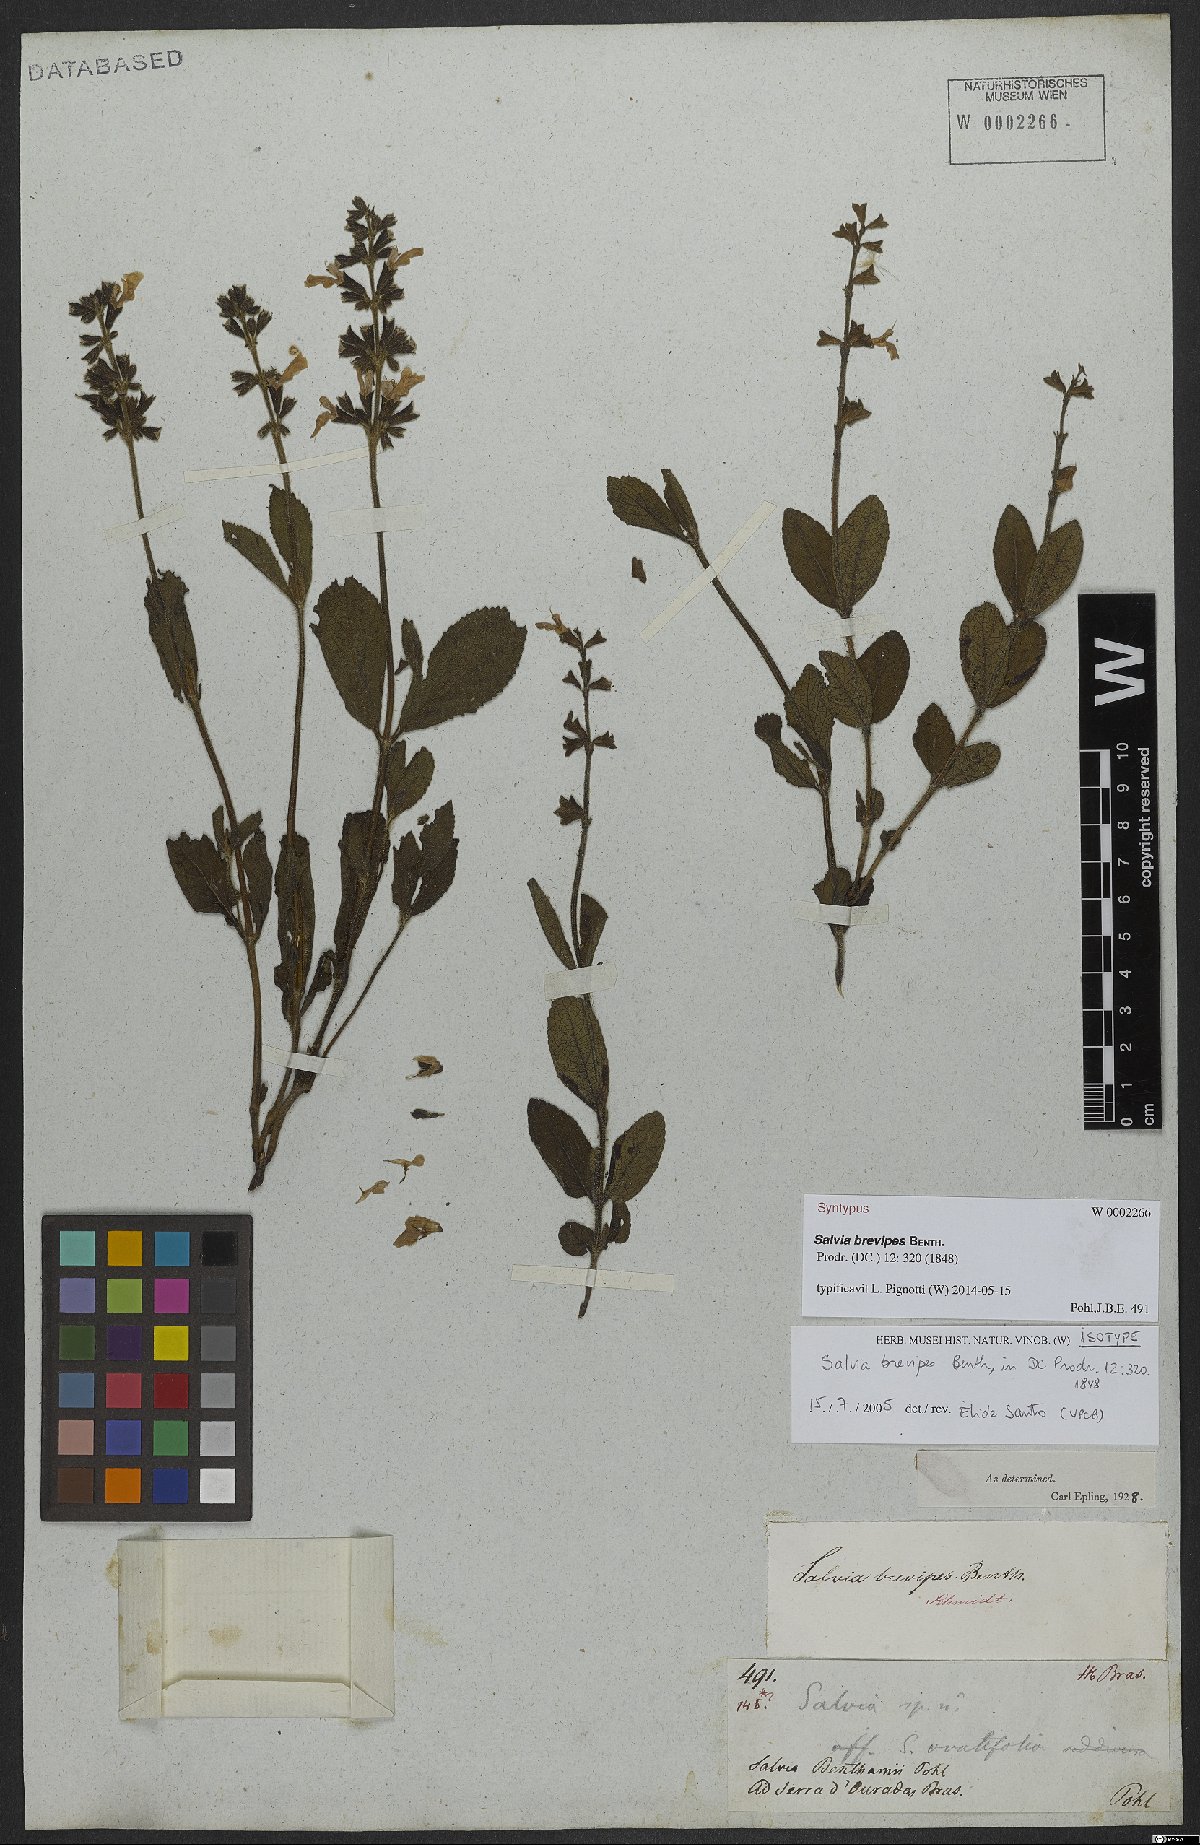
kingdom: Plantae
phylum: Tracheophyta
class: Magnoliopsida
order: Lamiales
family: Lamiaceae
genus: Salvia
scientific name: Salvia brevipes
